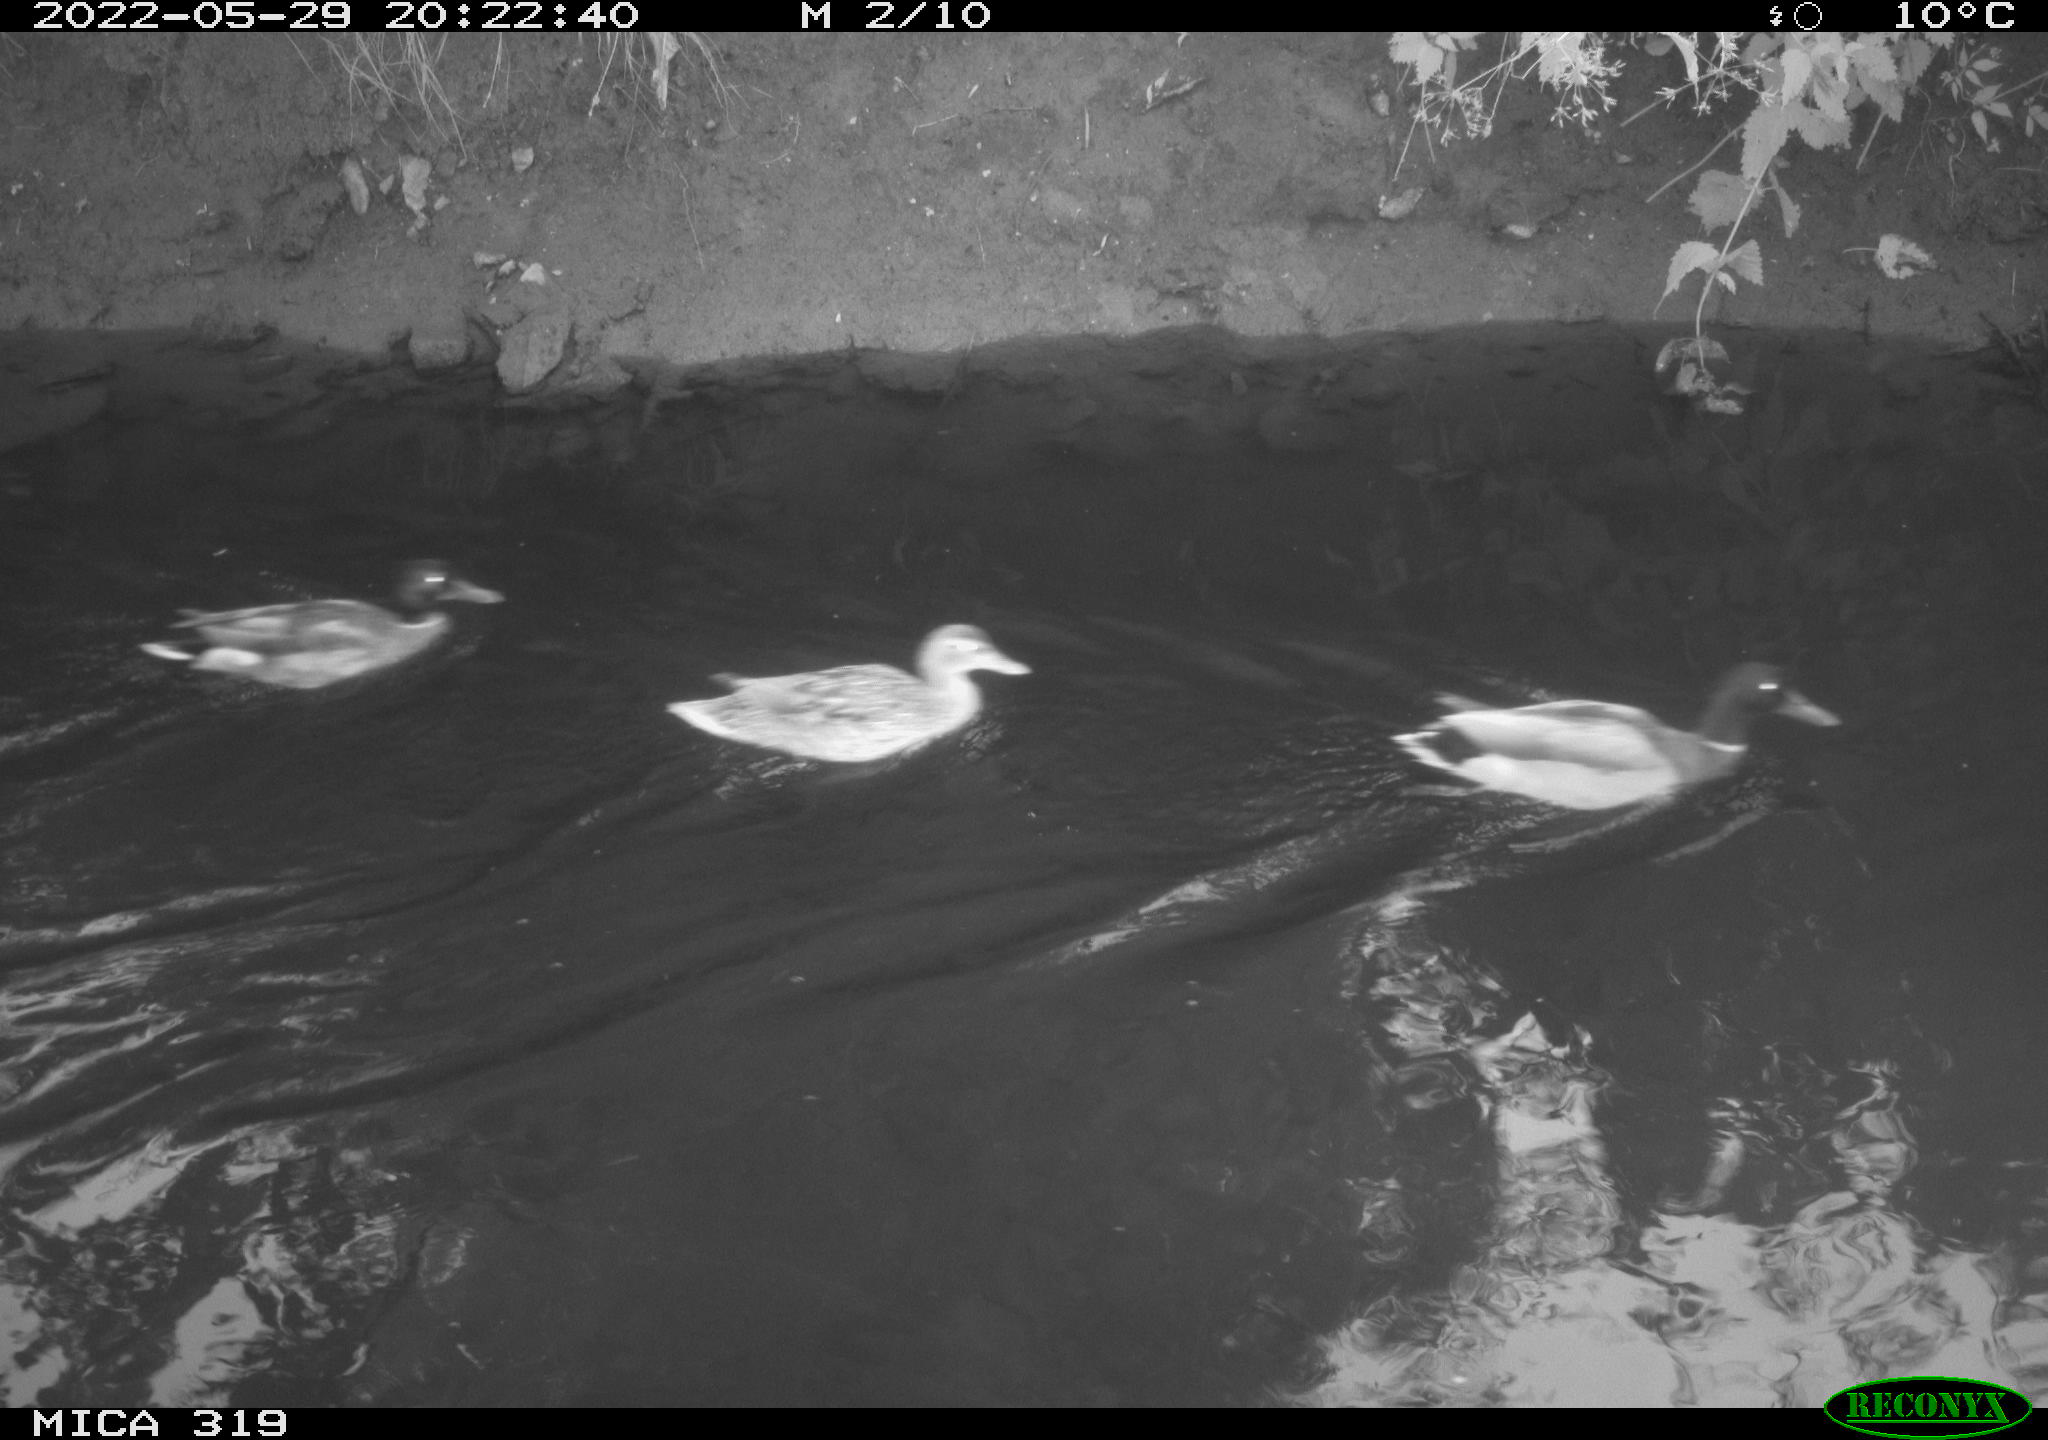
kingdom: Animalia
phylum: Chordata
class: Aves
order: Anseriformes
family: Anatidae
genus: Anas
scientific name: Anas
